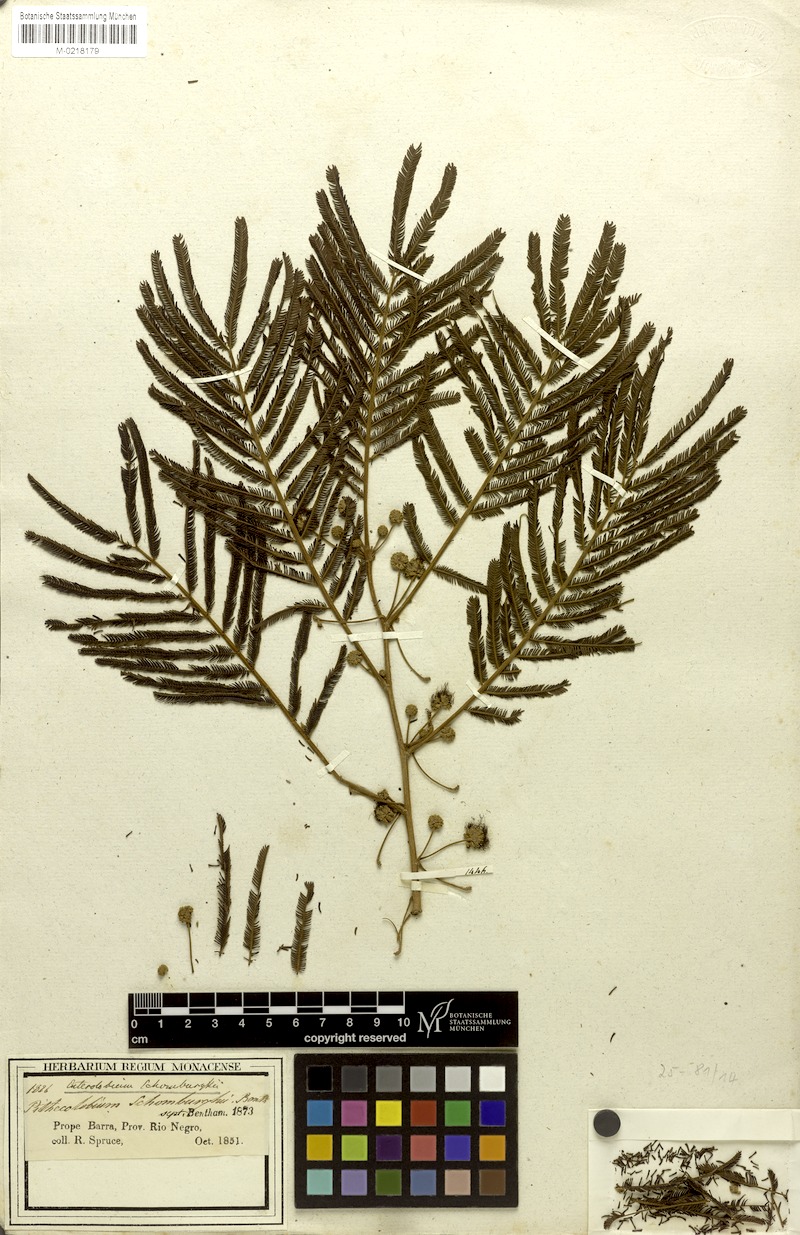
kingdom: Plantae
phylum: Tracheophyta
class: Magnoliopsida
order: Fabales
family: Fabaceae
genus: Enterolobium
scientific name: Enterolobium schomburgkii
